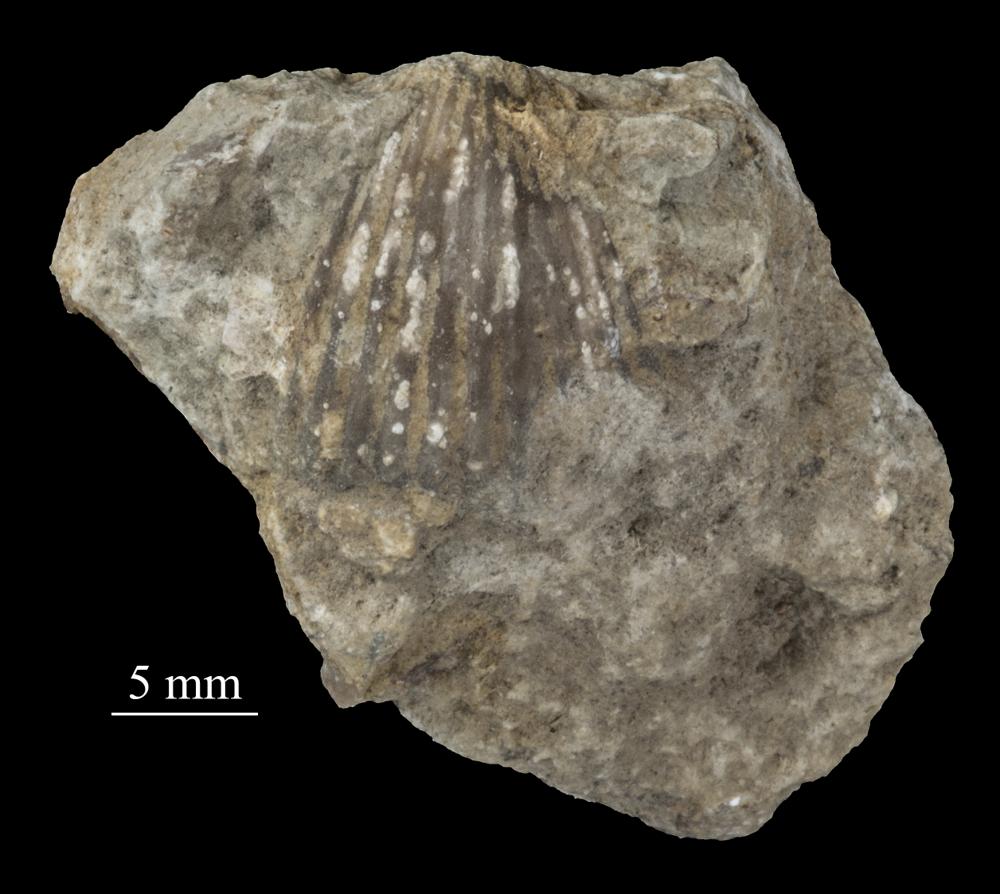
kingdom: Animalia
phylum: Brachiopoda
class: Rhynchonellata
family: Plectorthidae
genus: Platystrophia
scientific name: Platystrophia Terebratulites biforatus
